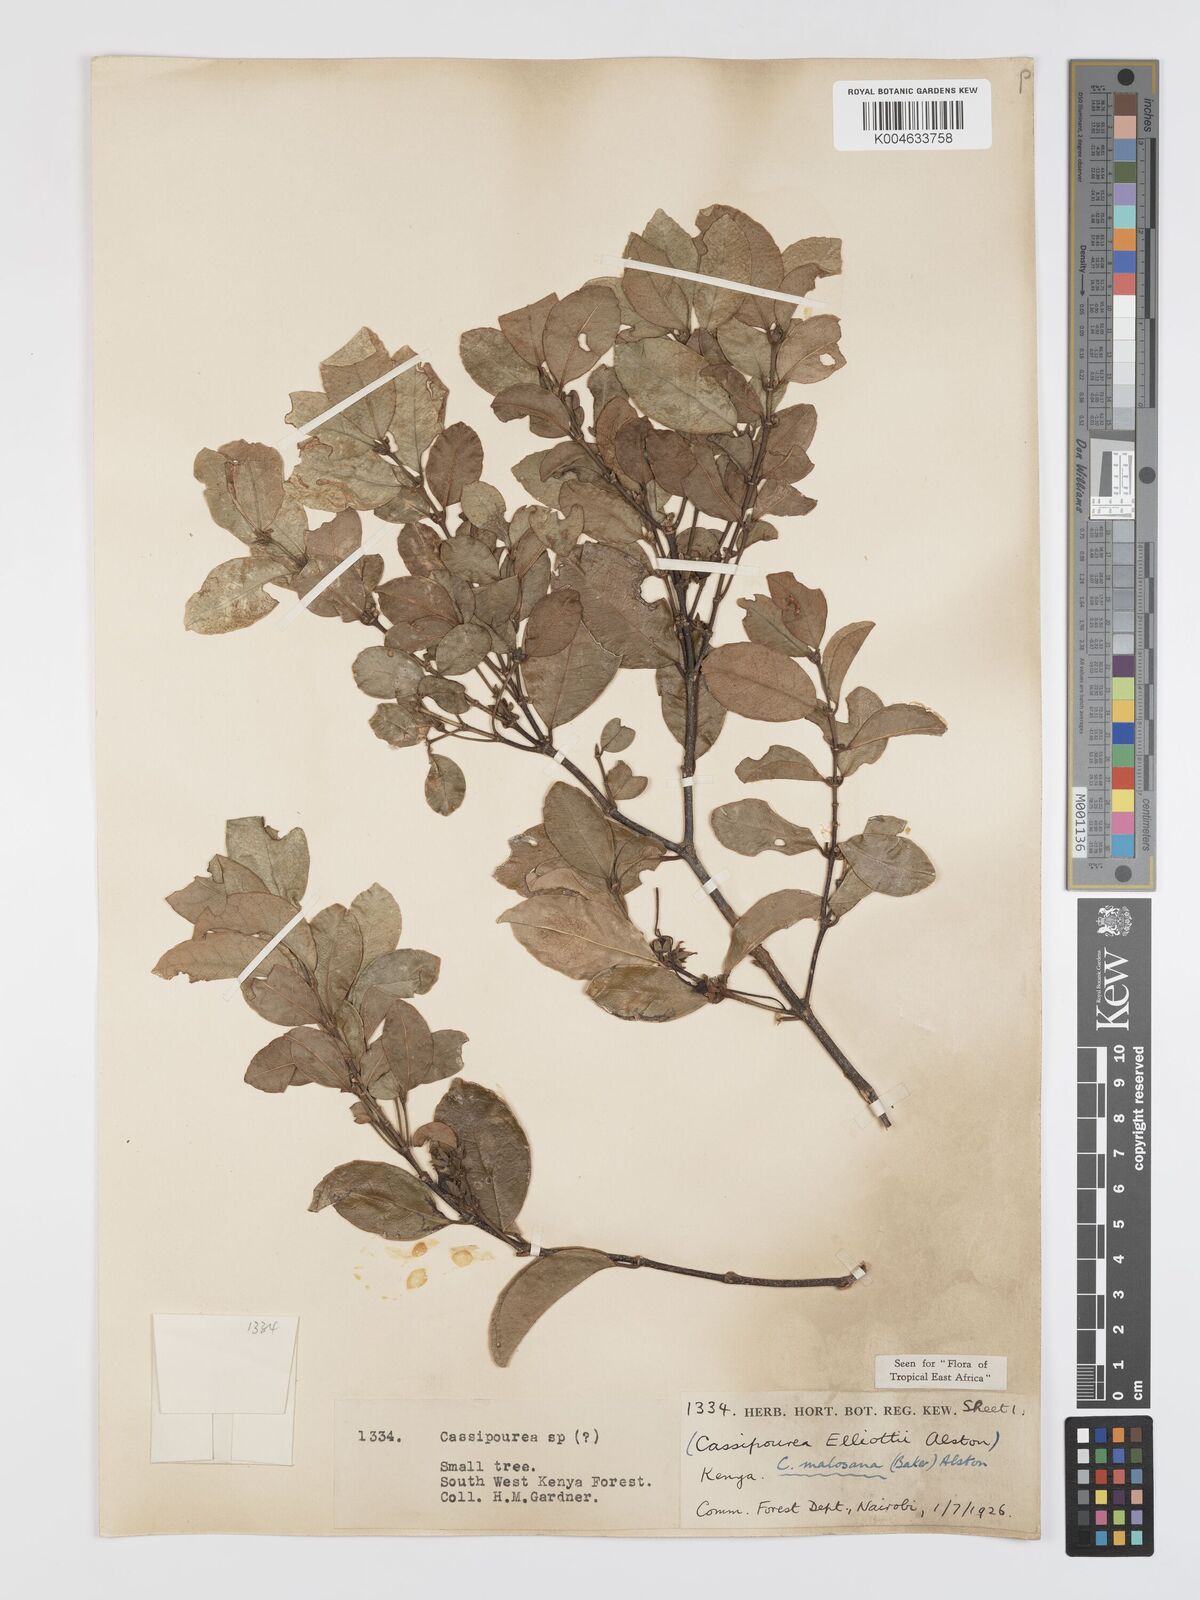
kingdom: Plantae
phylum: Tracheophyta
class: Magnoliopsida
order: Malpighiales
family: Rhizophoraceae
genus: Cassipourea
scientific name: Cassipourea
